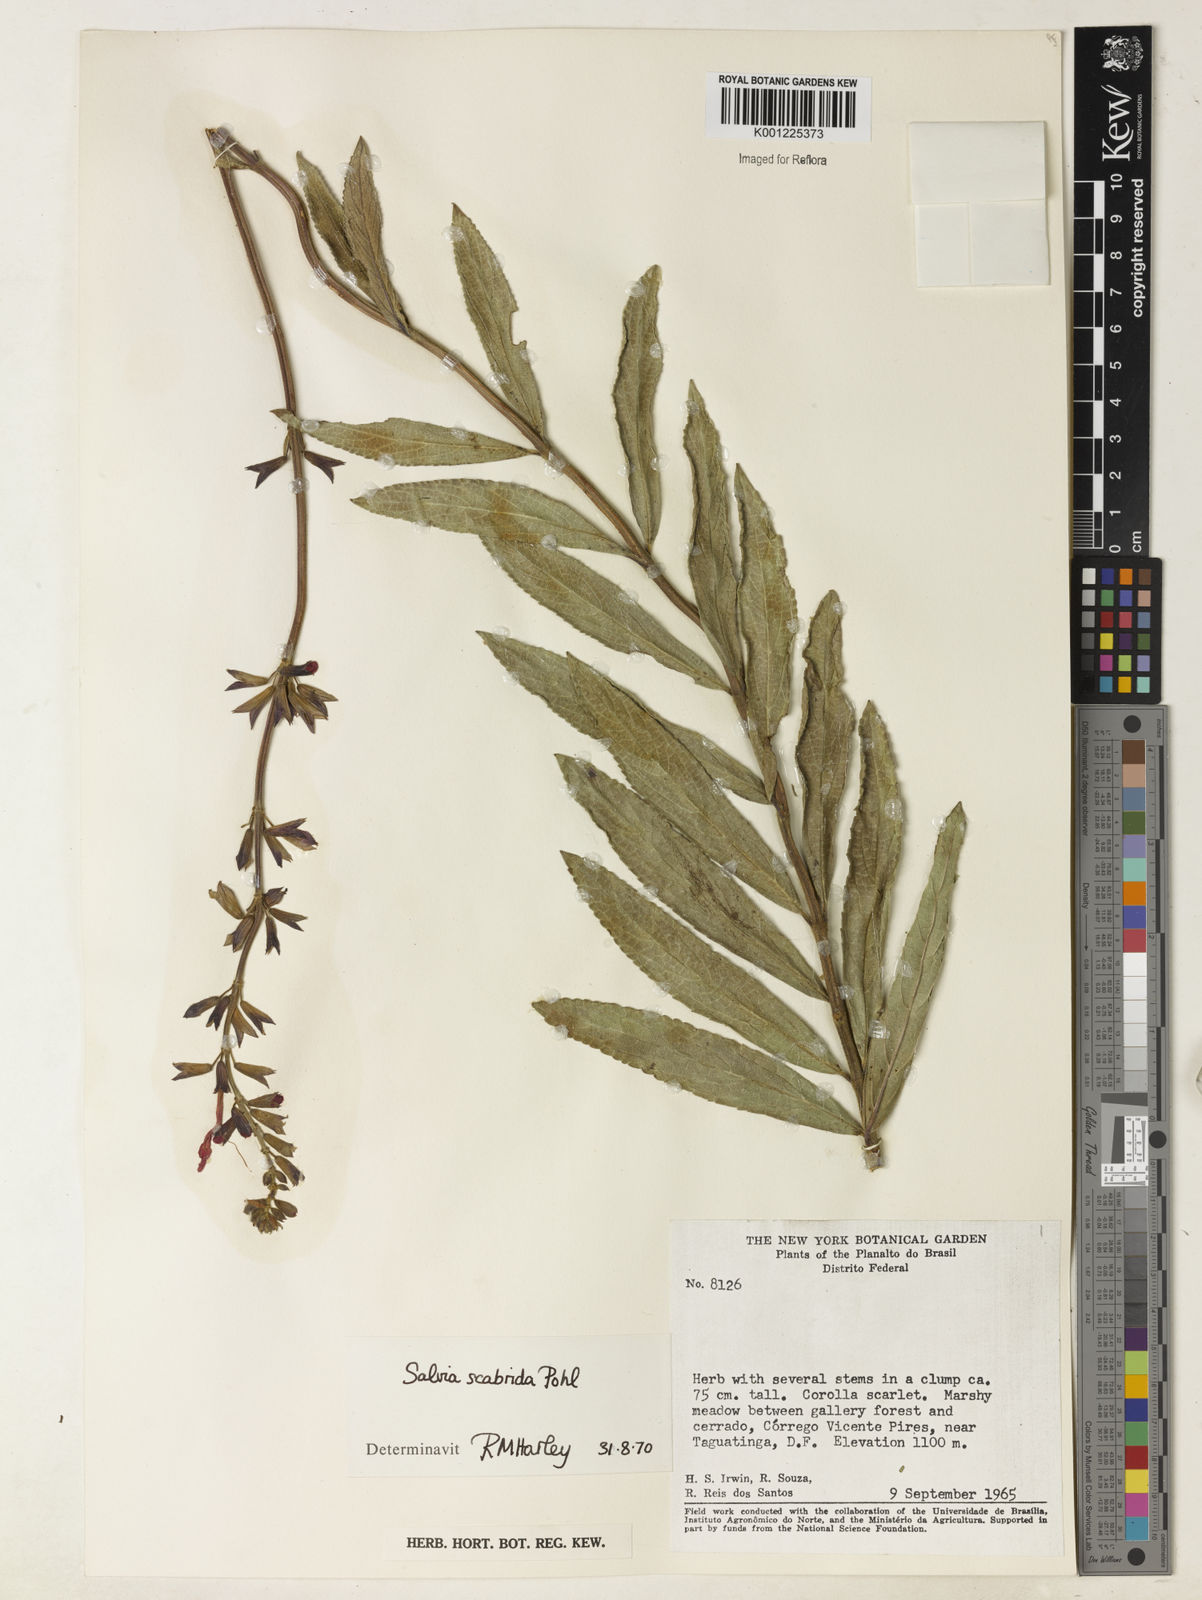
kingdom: Plantae
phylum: Tracheophyta
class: Magnoliopsida
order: Lamiales
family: Lamiaceae
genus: Salvia
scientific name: Salvia scabrida
